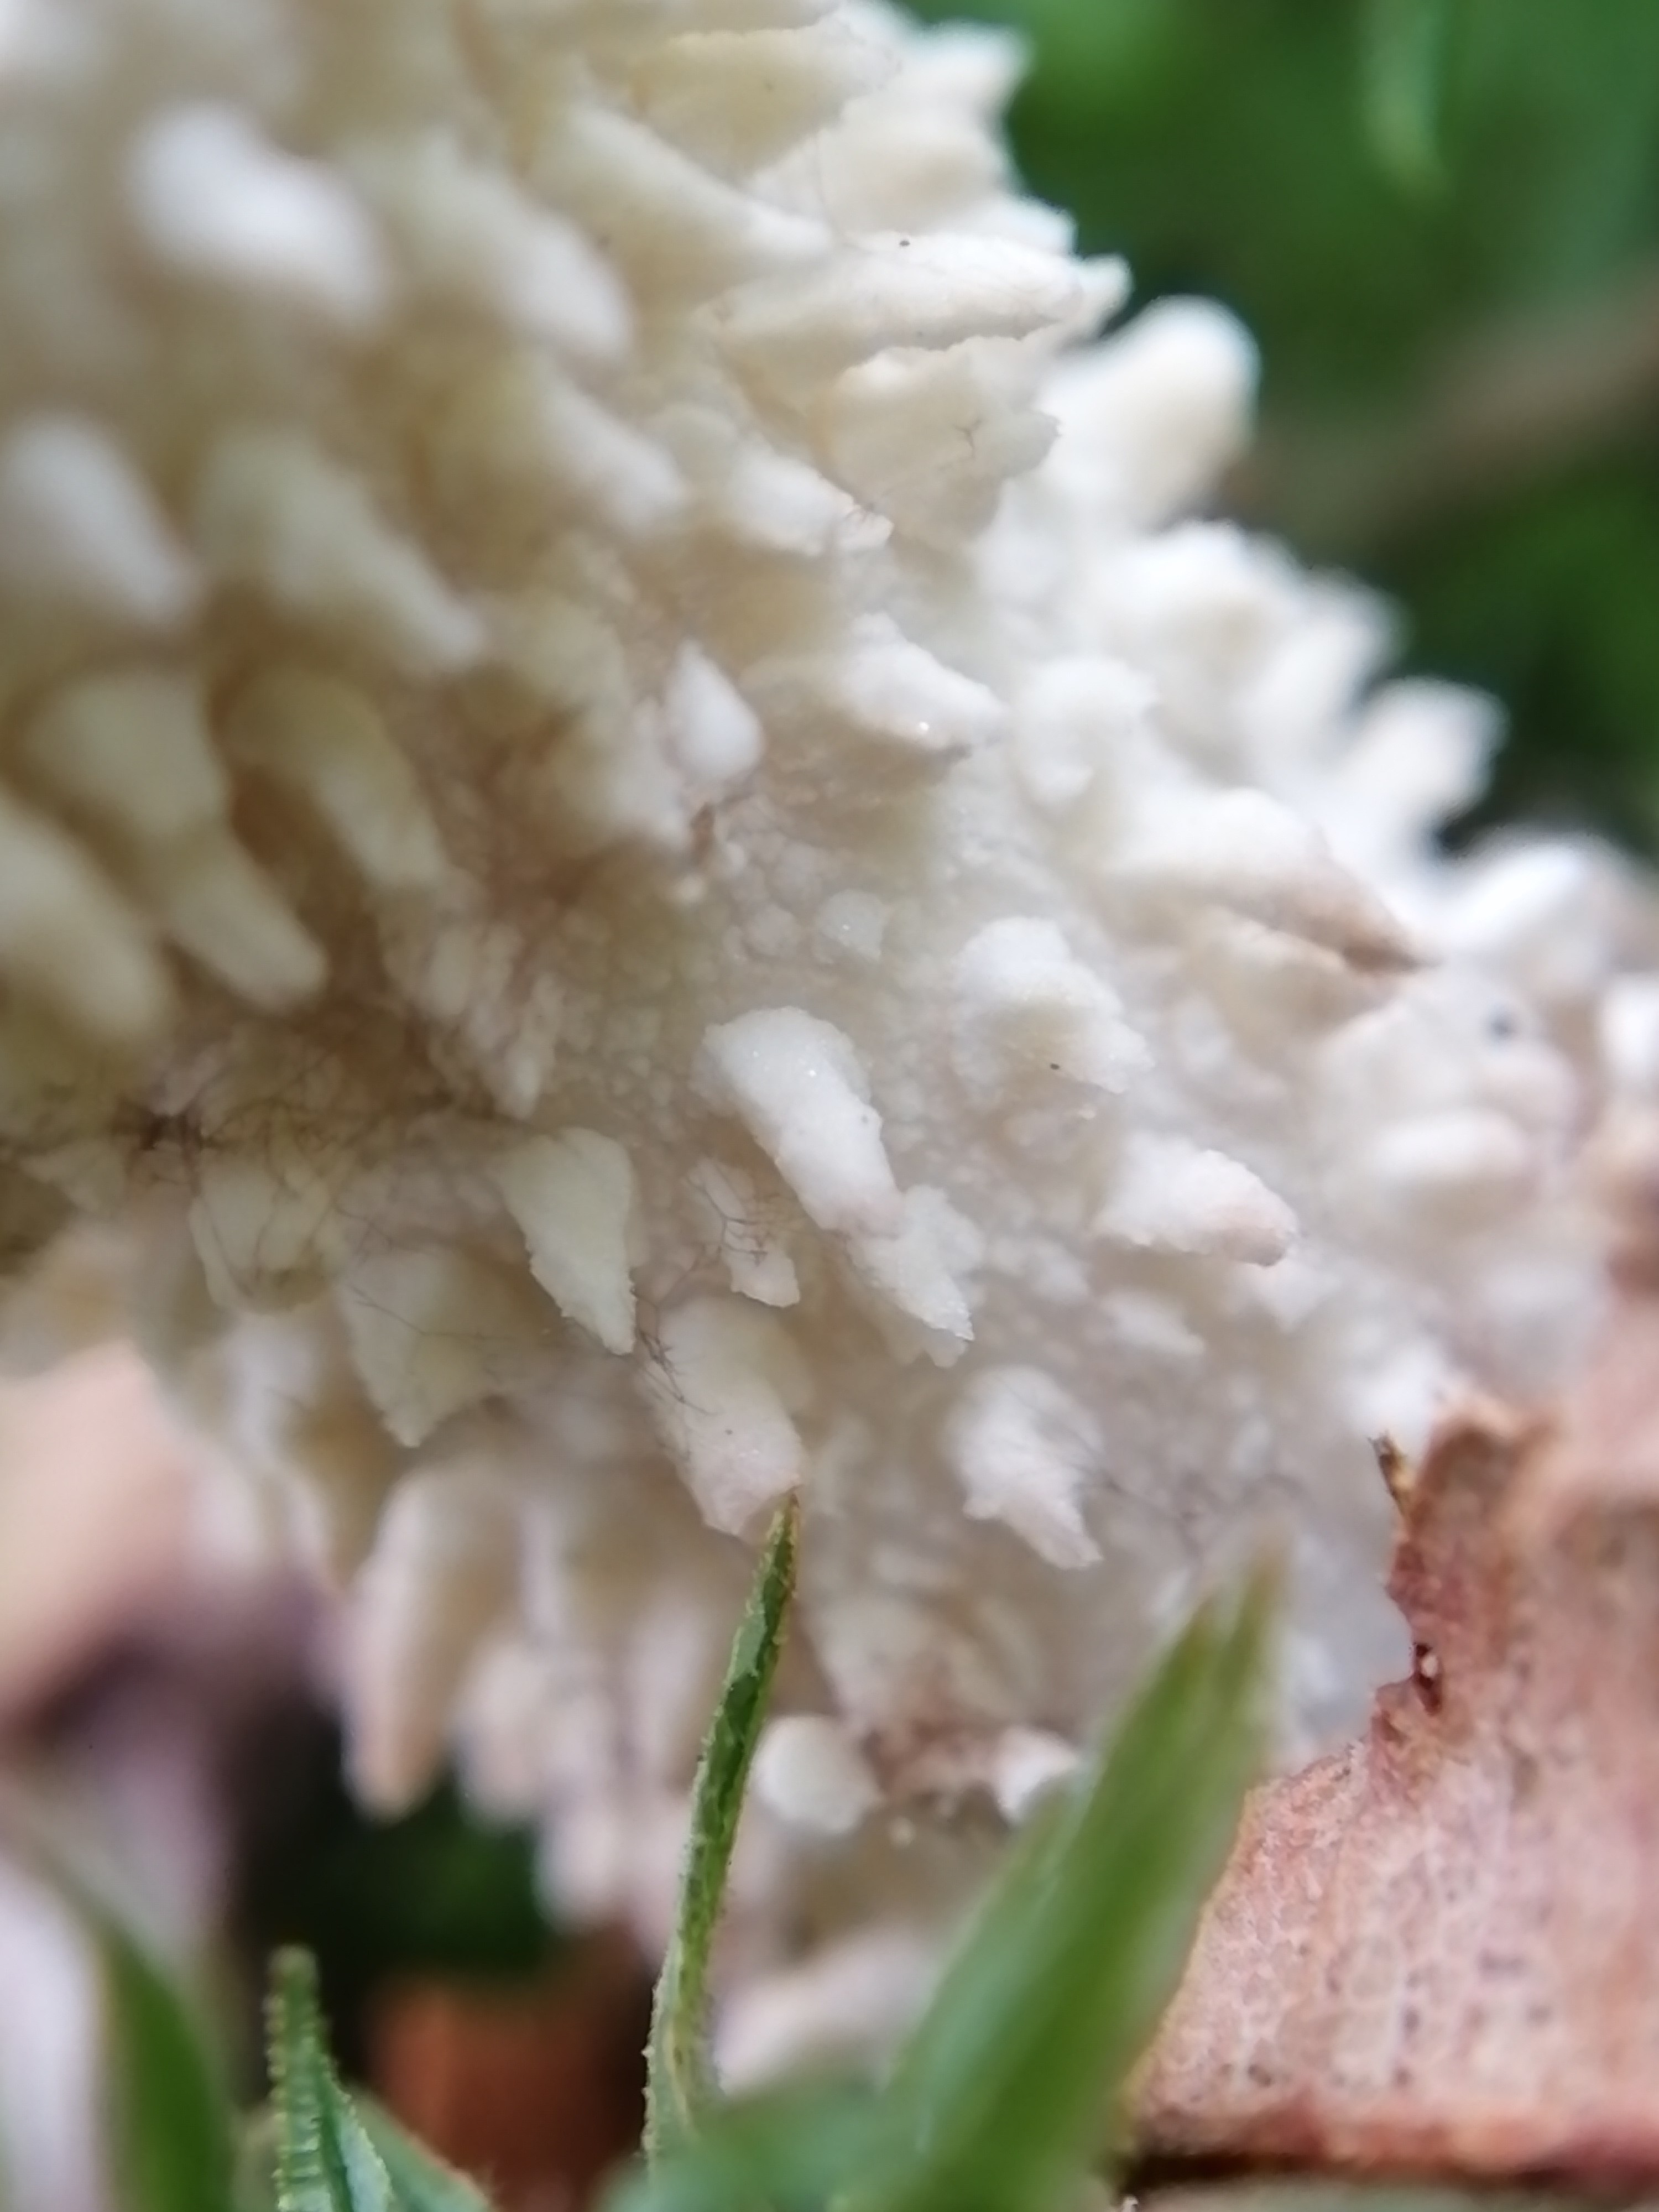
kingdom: Fungi
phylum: Basidiomycota
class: Agaricomycetes
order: Agaricales
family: Agaricaceae
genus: Lycoperdon
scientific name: Lycoperdon
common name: støvbold
